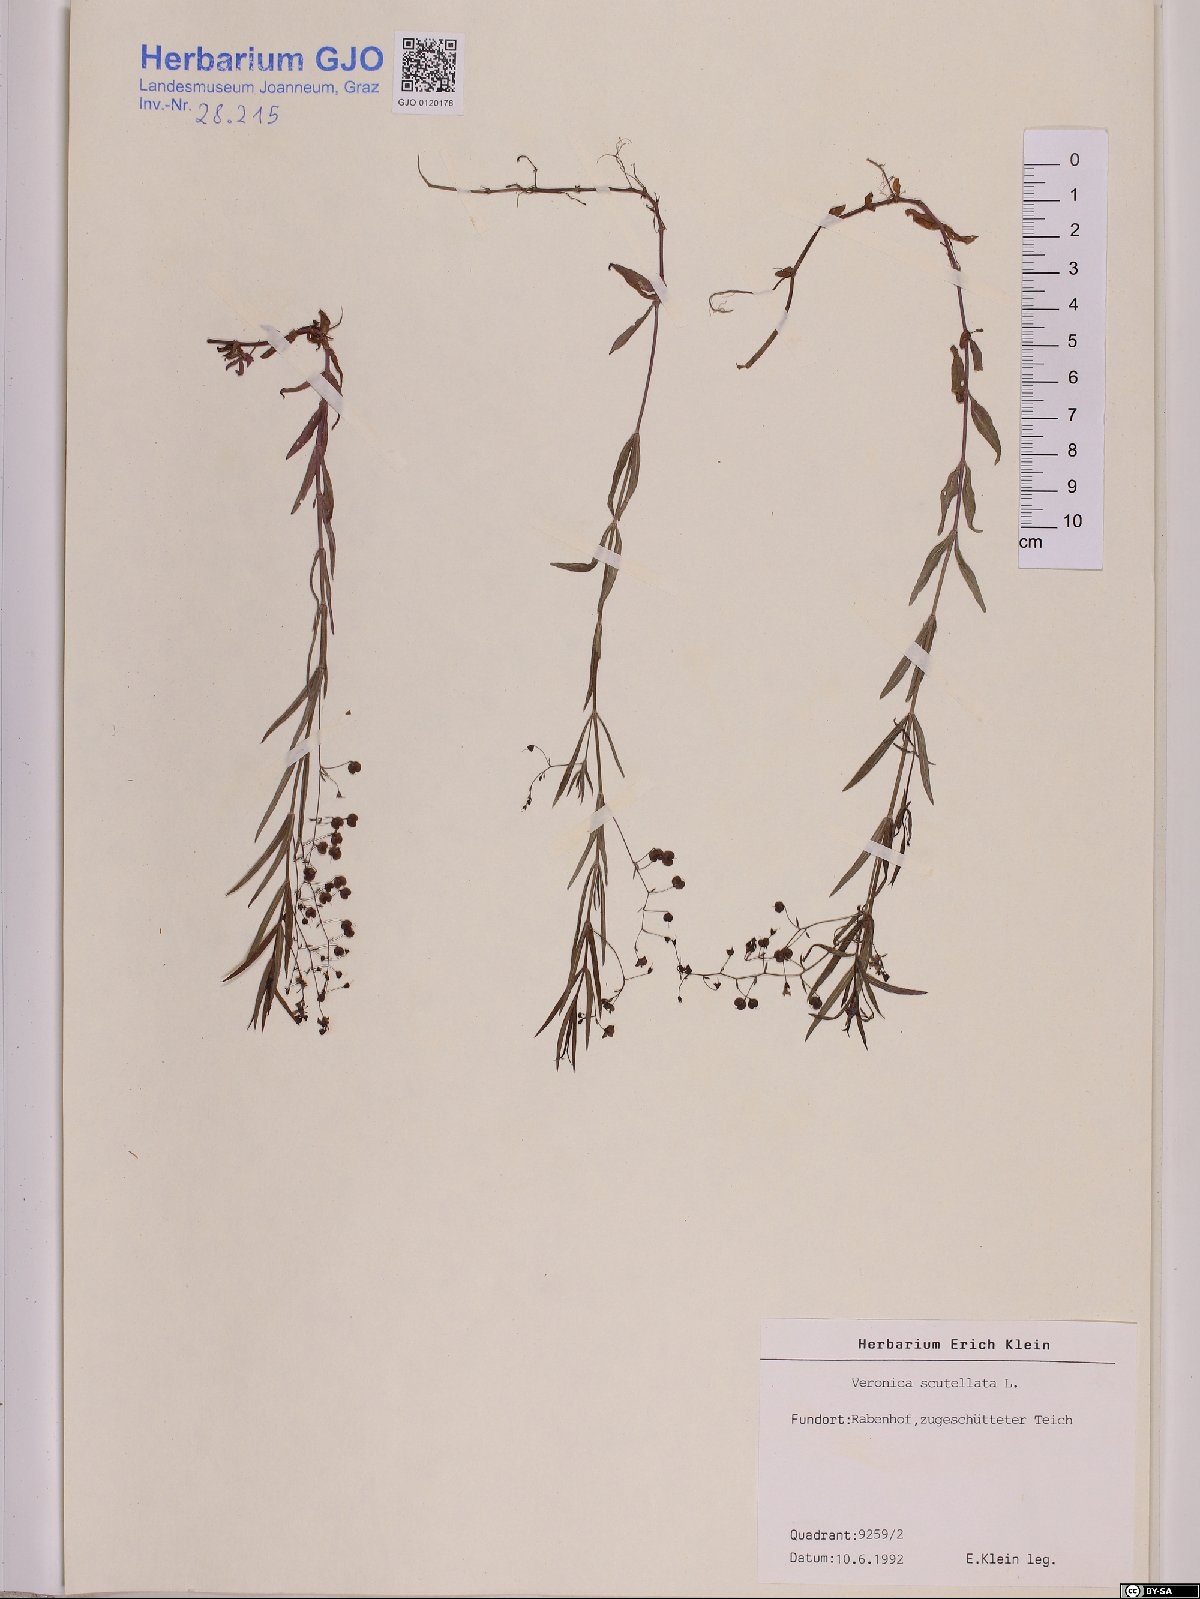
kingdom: Plantae
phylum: Tracheophyta
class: Magnoliopsida
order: Lamiales
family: Plantaginaceae
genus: Veronica
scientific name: Veronica scutellata
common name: Marsh speedwell
